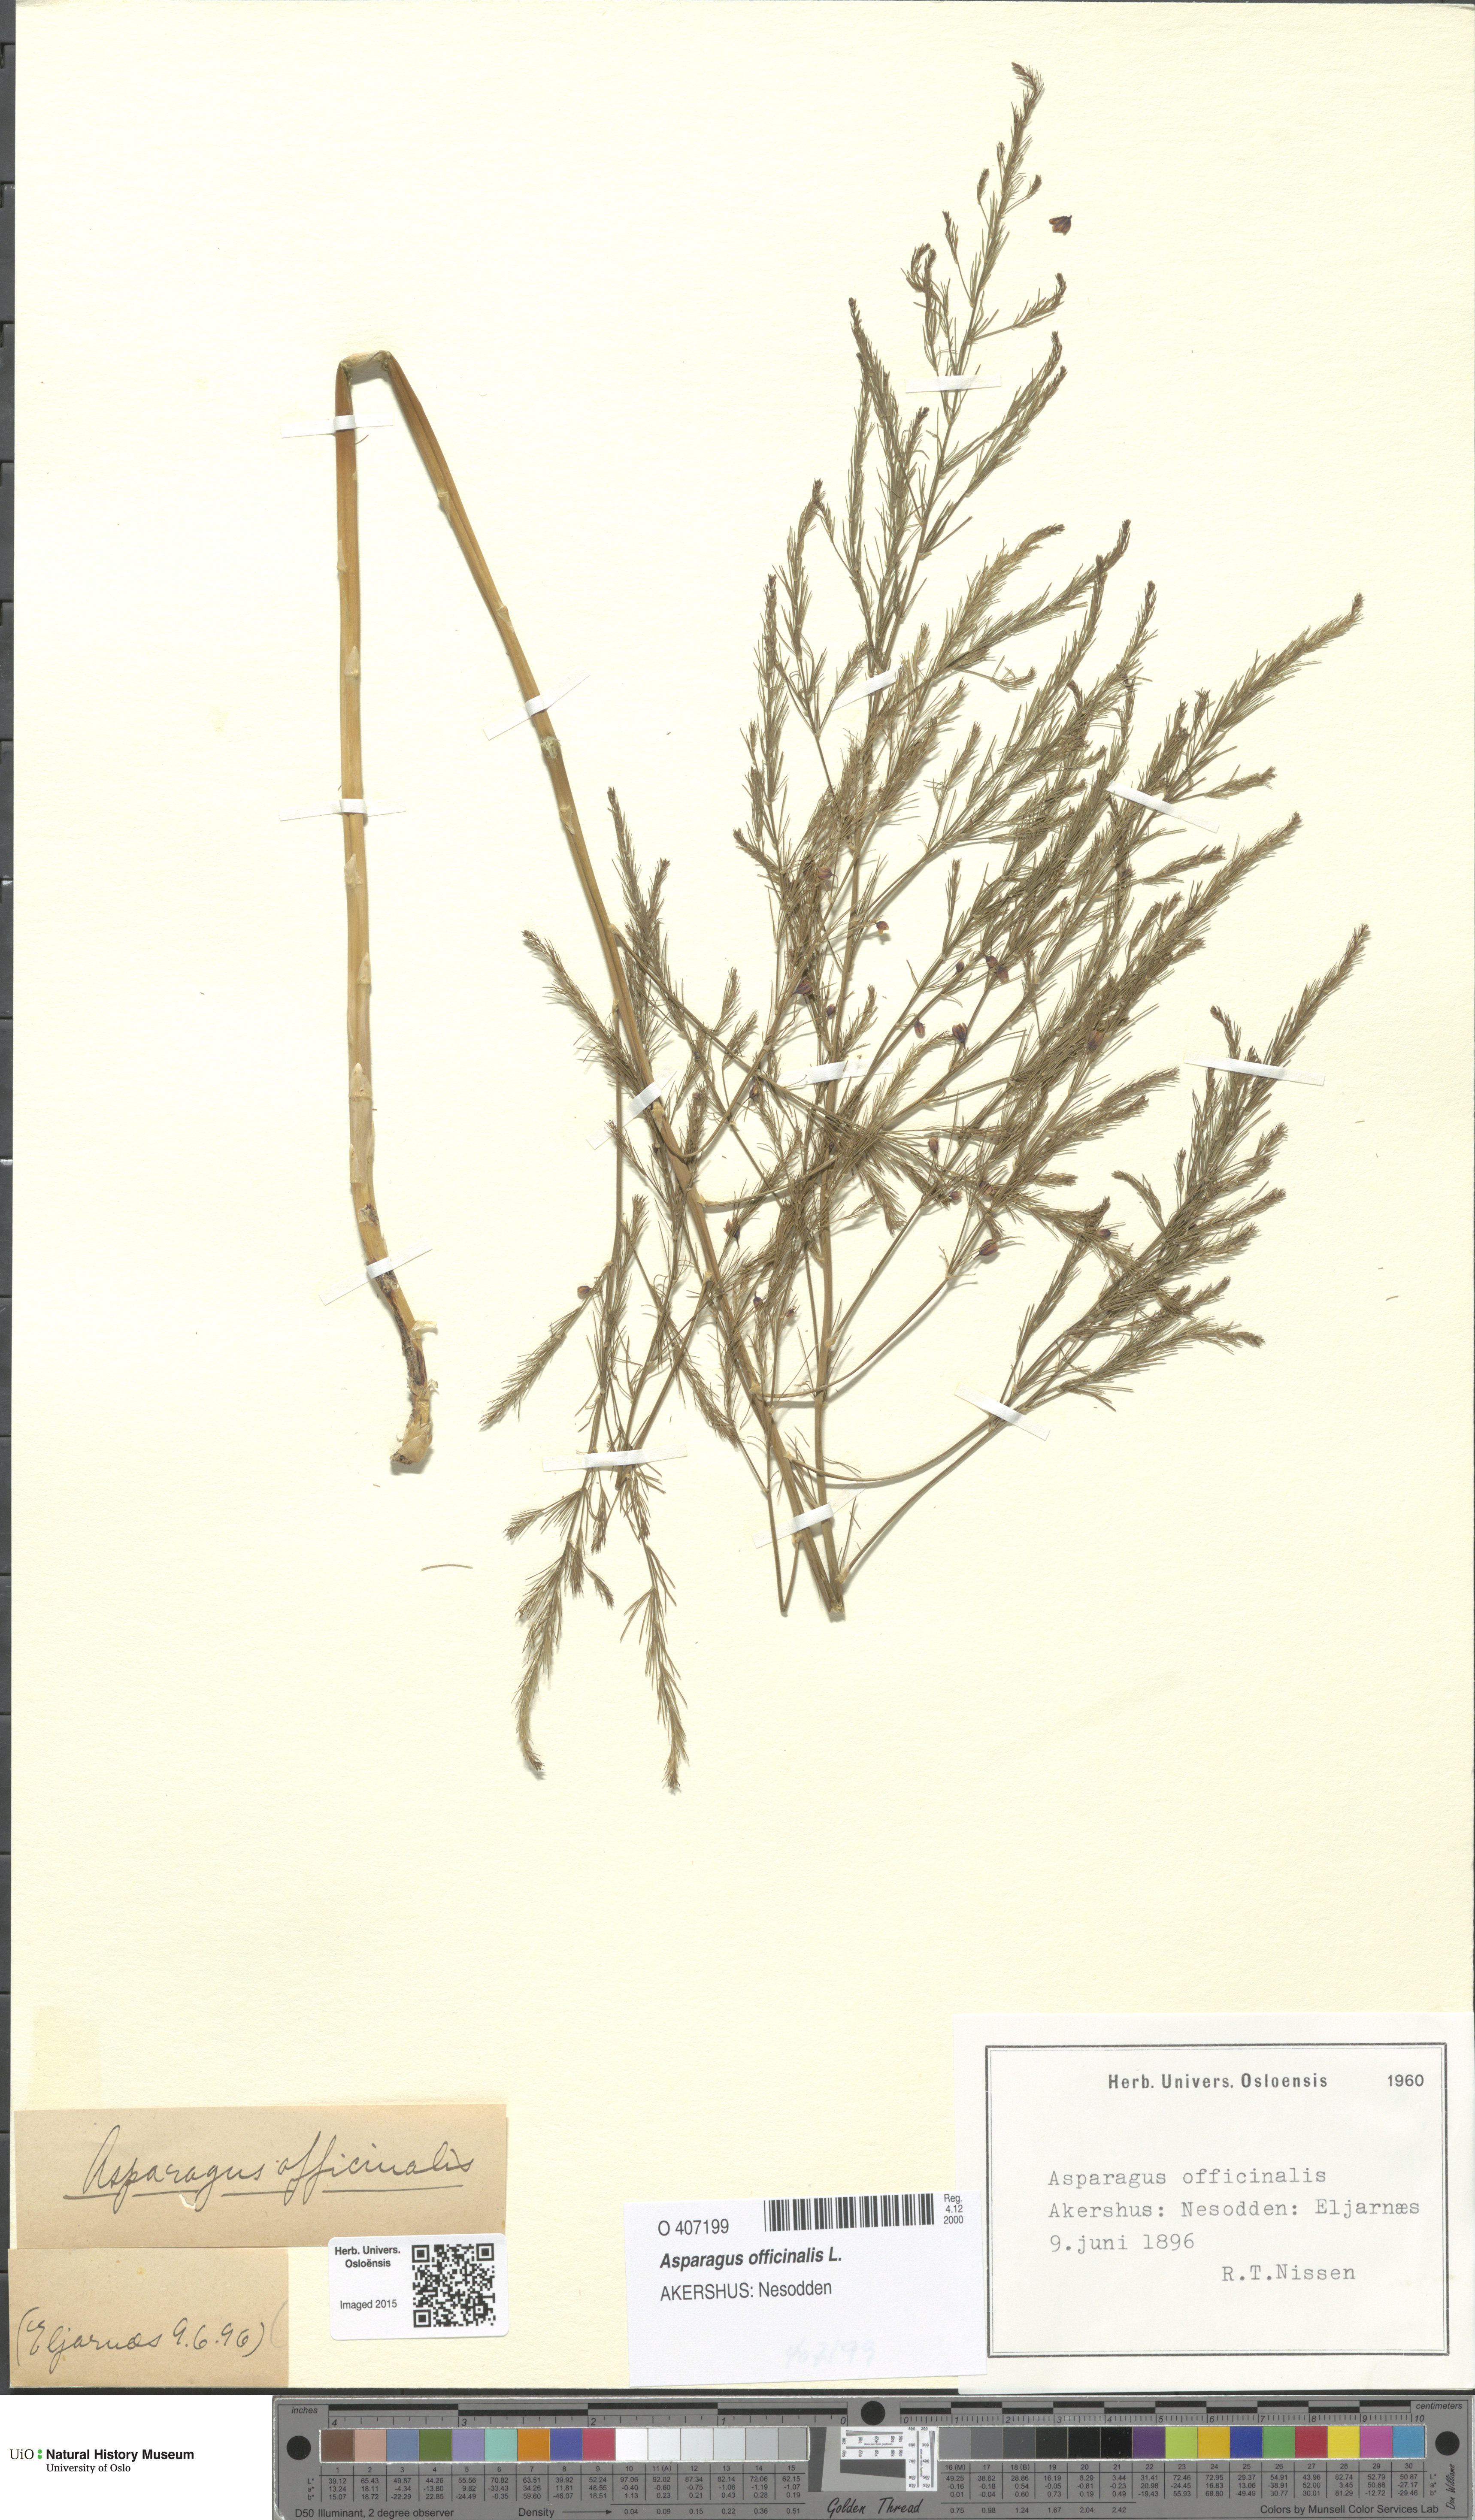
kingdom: Plantae
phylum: Tracheophyta
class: Liliopsida
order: Asparagales
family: Asparagaceae
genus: Asparagus
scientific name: Asparagus officinalis
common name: Garden asparagus
